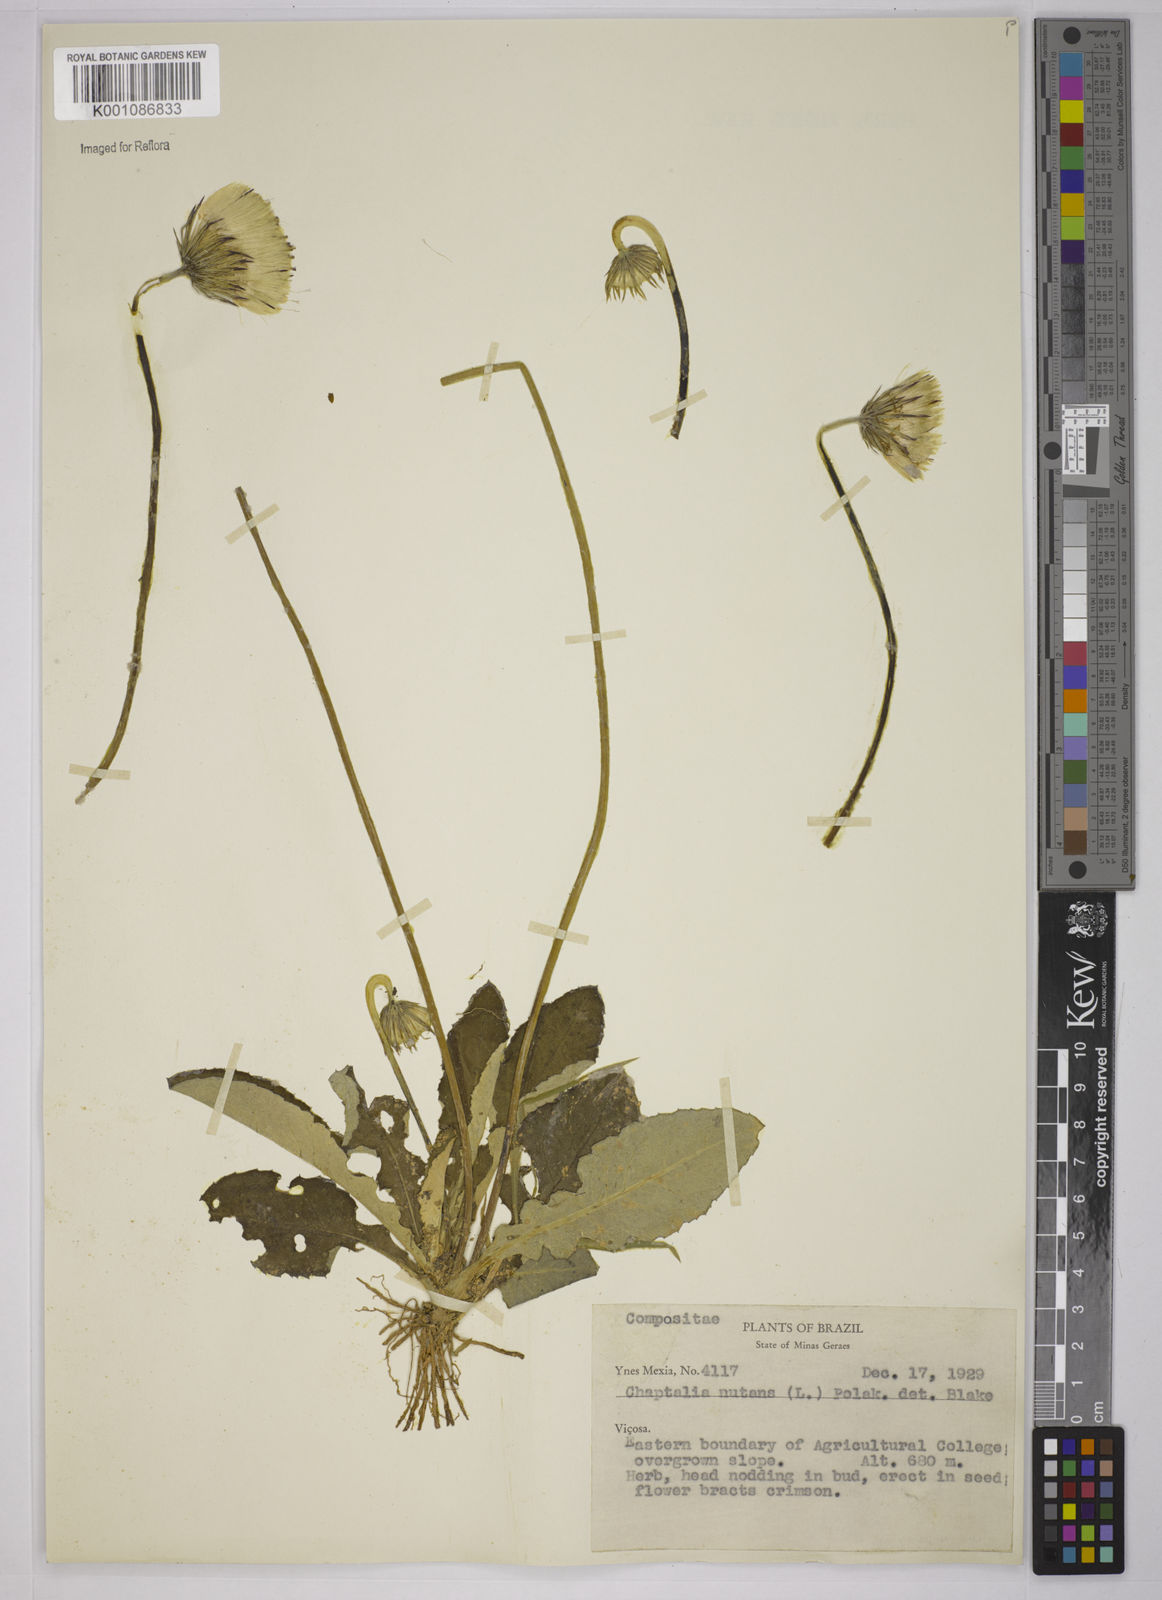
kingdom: Plantae
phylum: Tracheophyta
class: Magnoliopsida
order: Asterales
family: Asteraceae
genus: Chaptalia
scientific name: Chaptalia nutans
